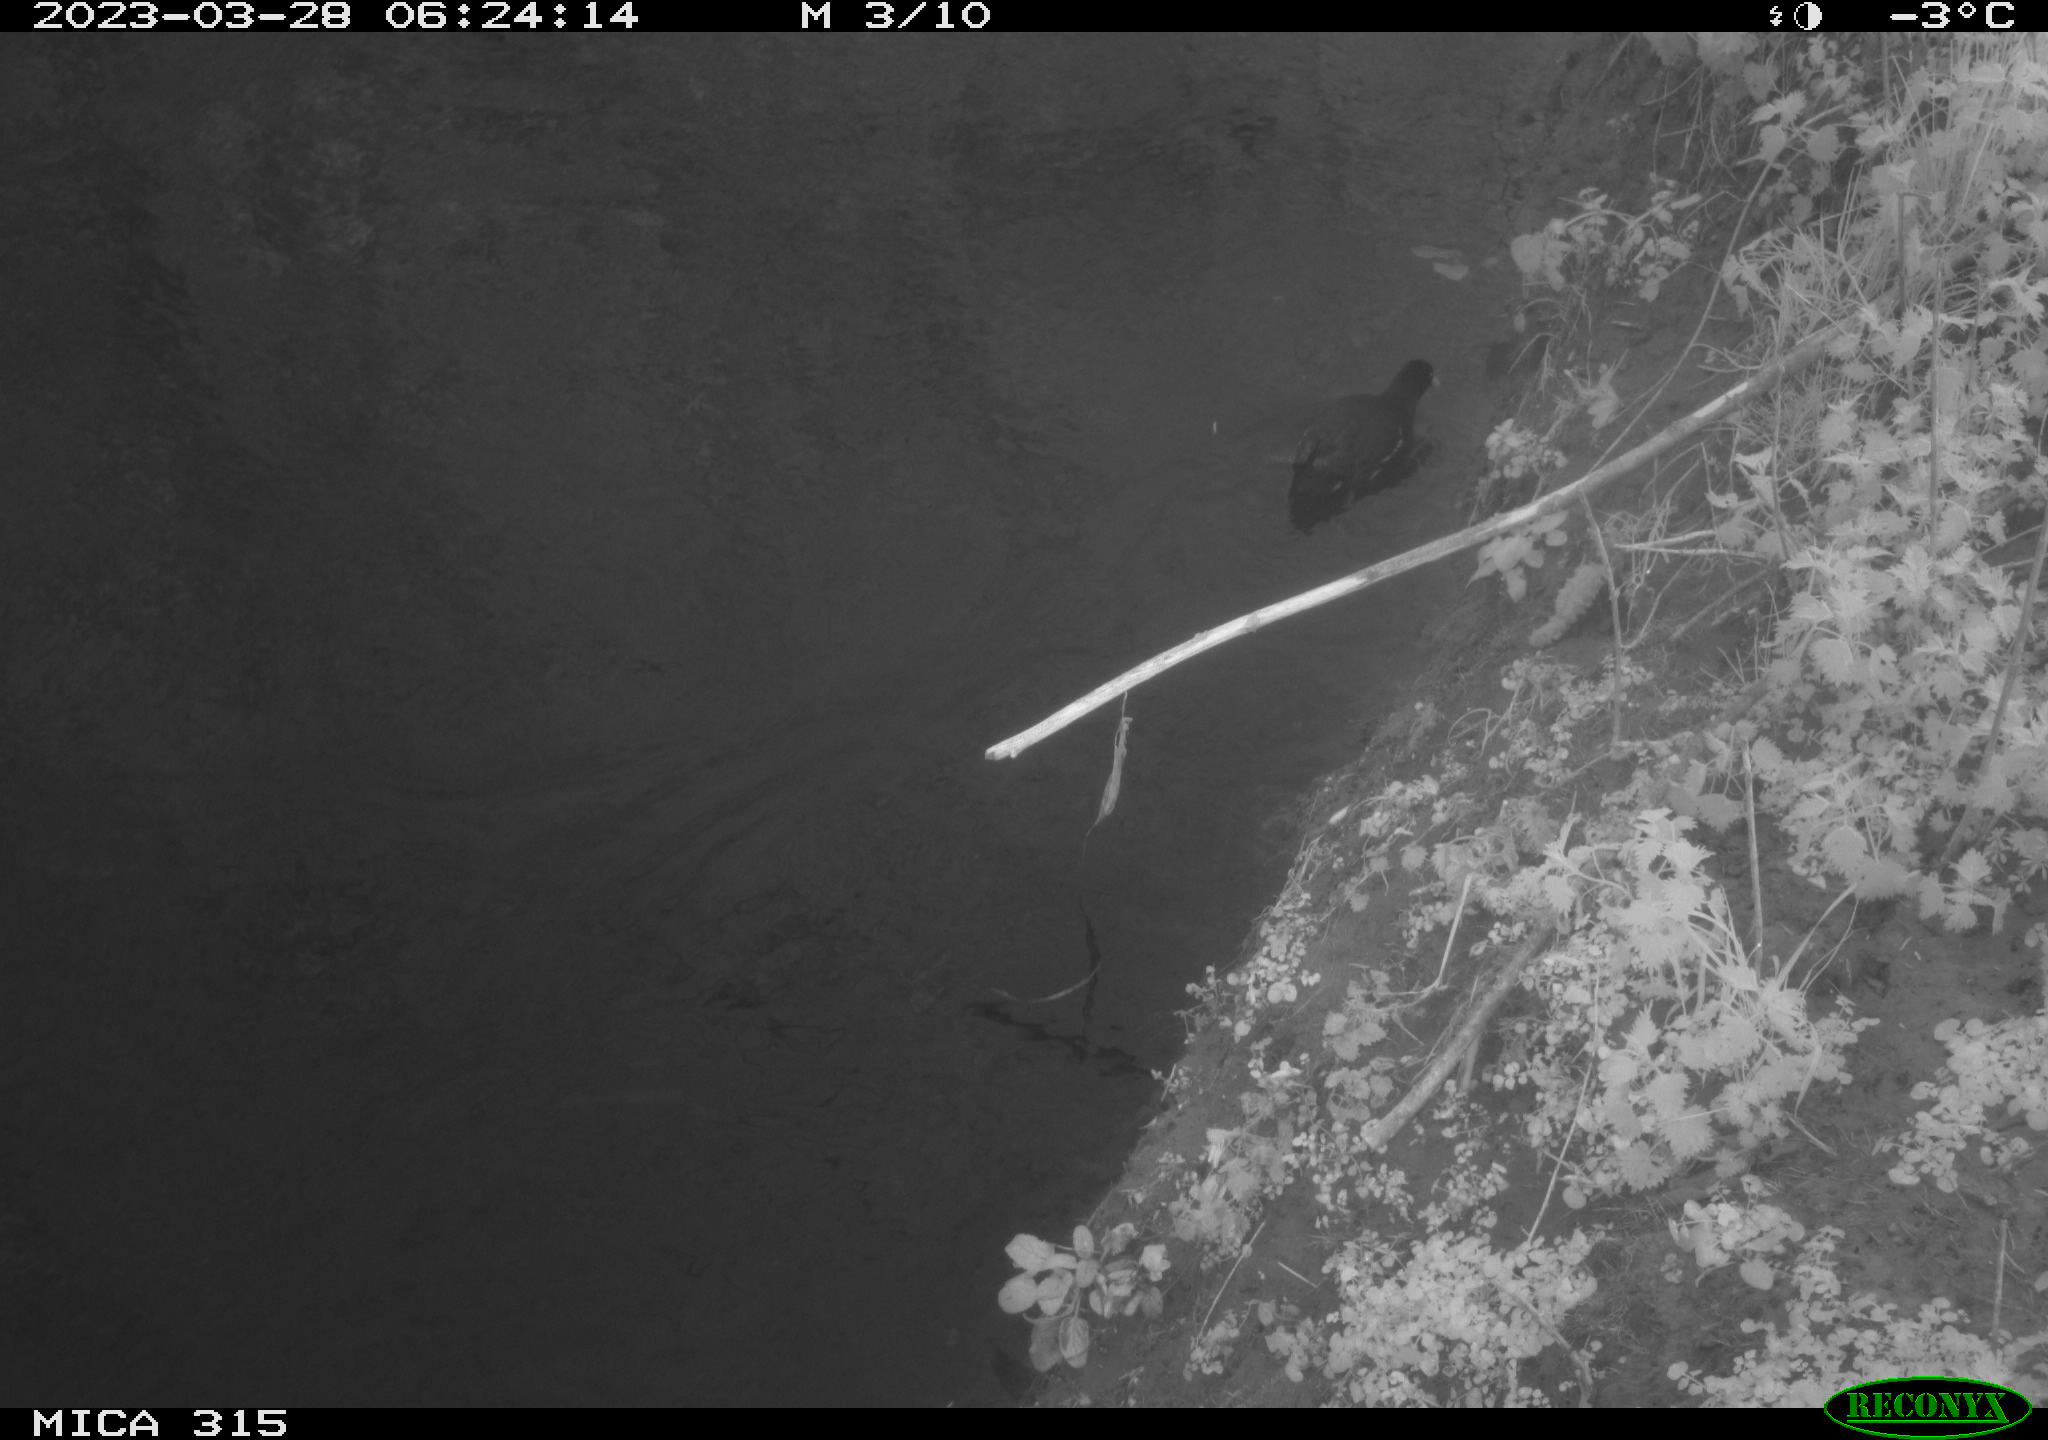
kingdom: Animalia
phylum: Chordata
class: Aves
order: Gruiformes
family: Rallidae
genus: Gallinula
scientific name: Gallinula chloropus
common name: Common moorhen
